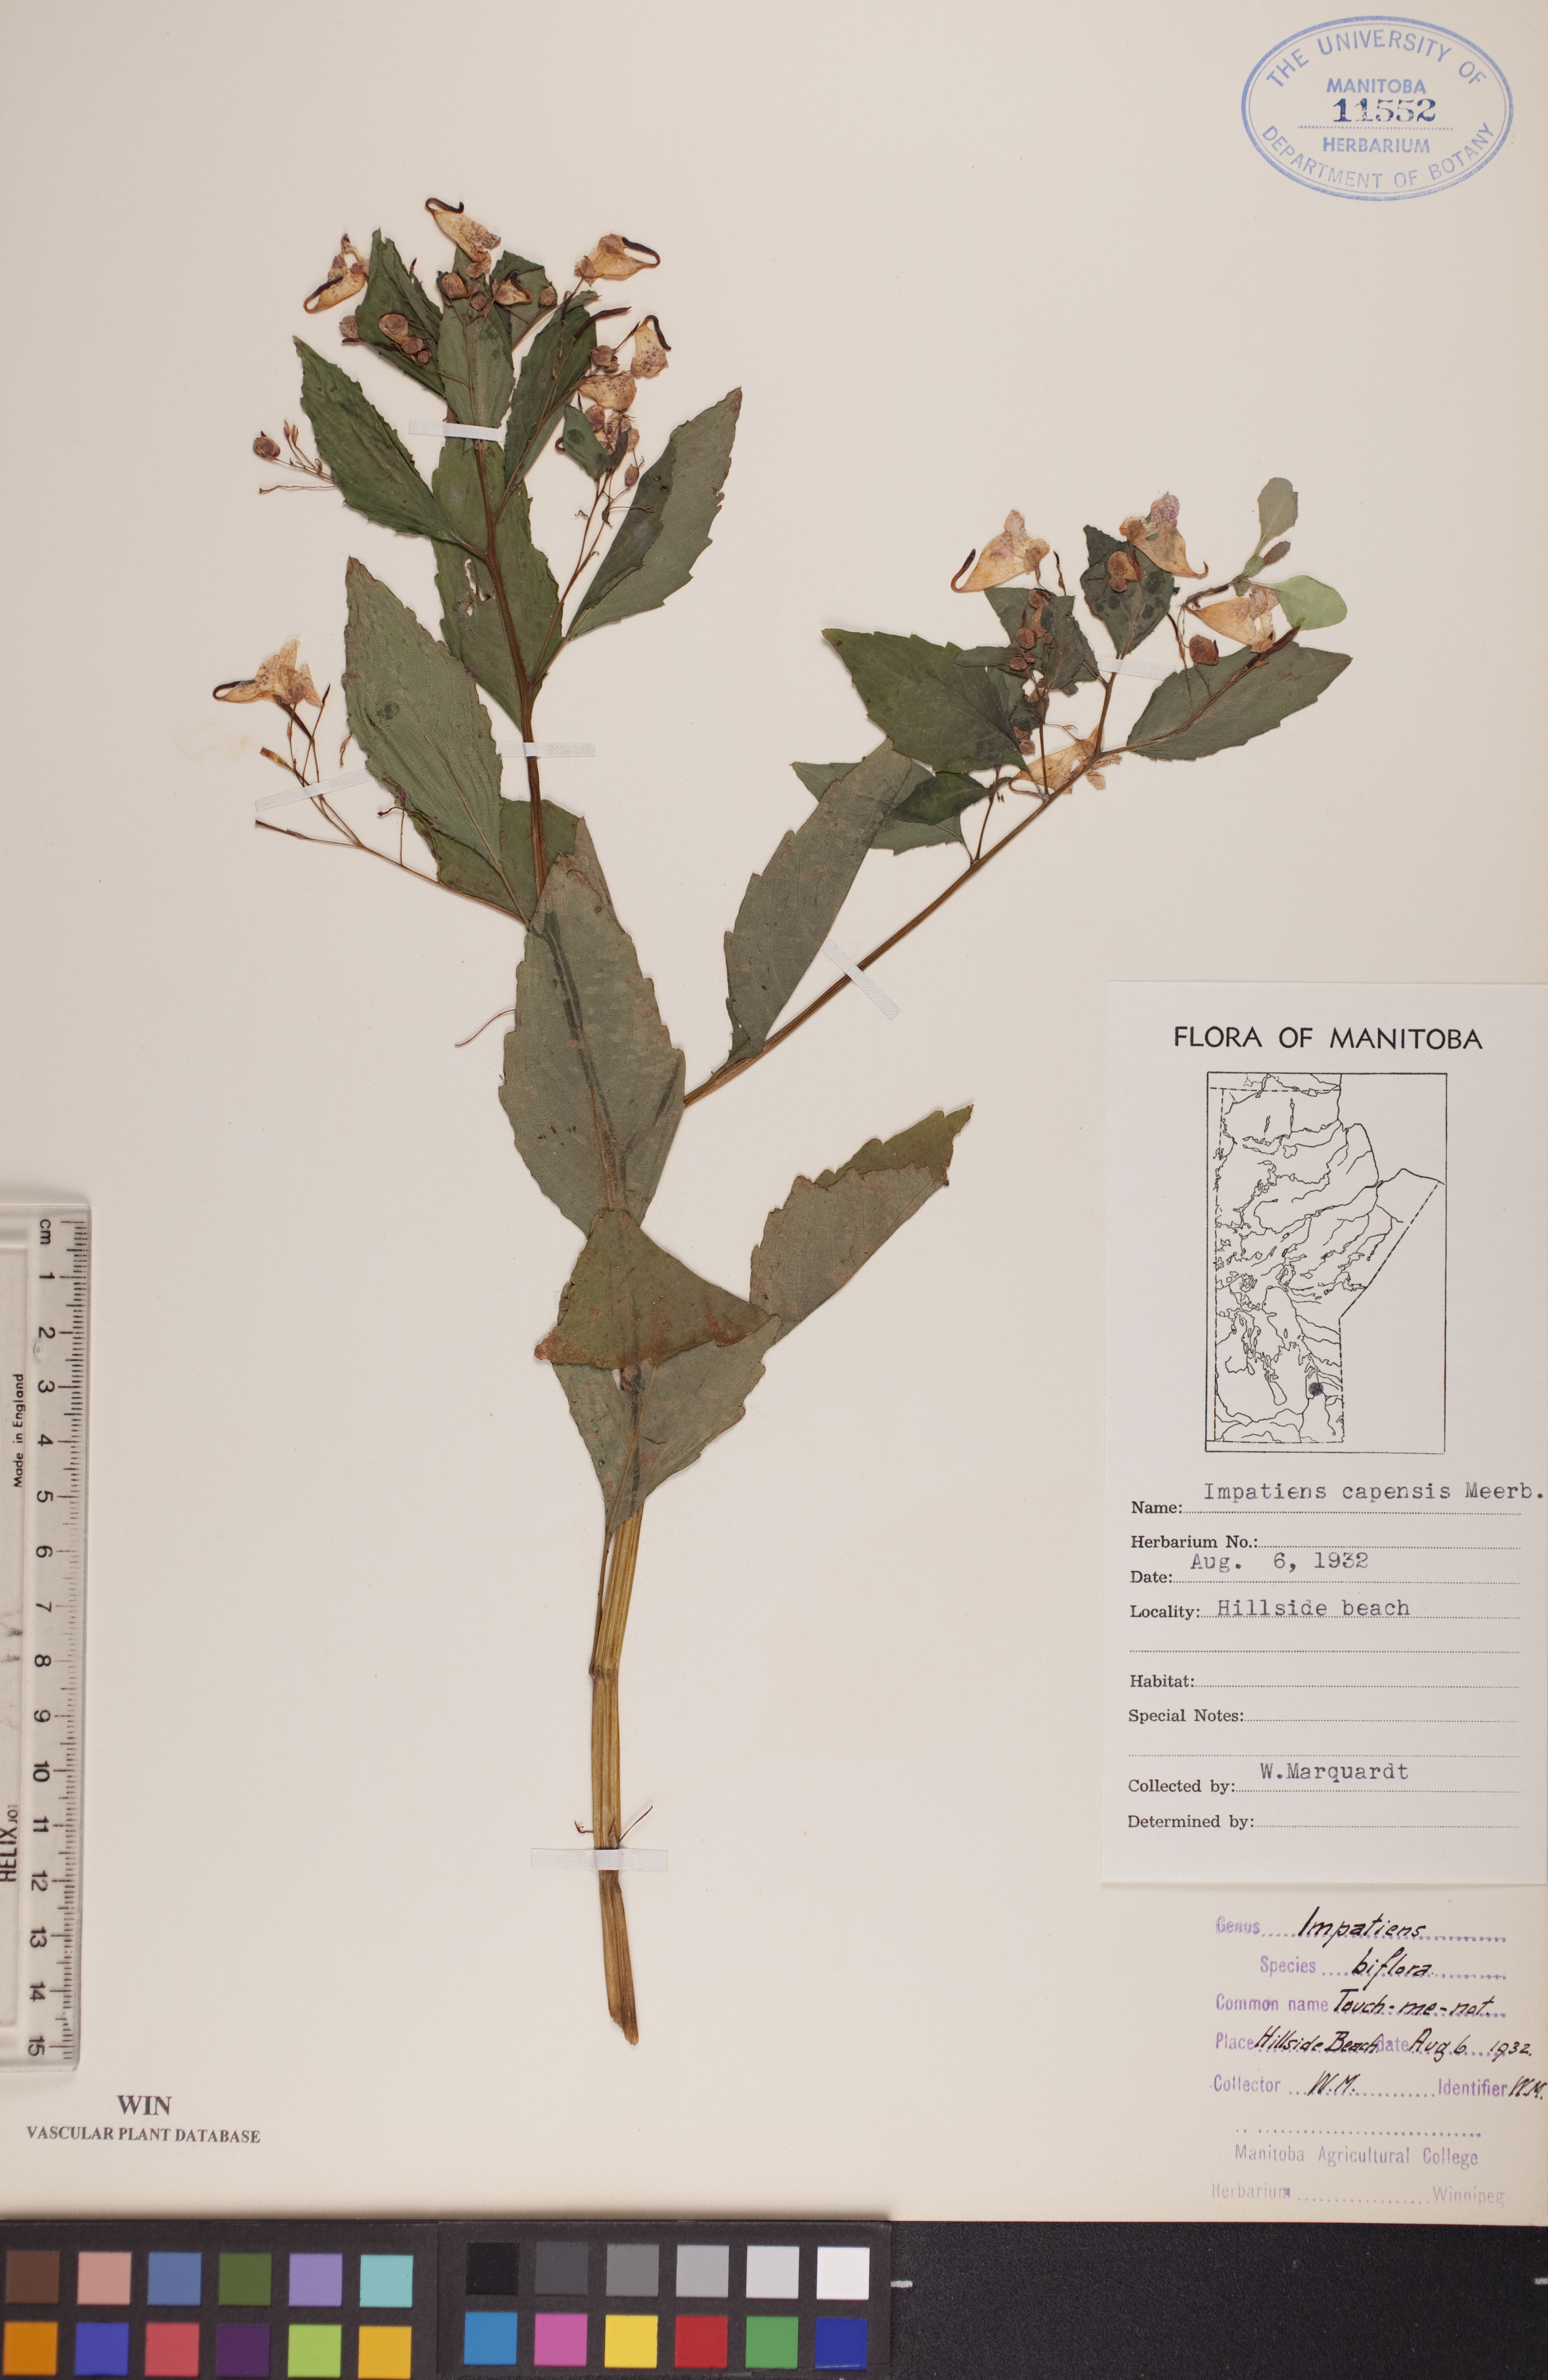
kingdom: Plantae
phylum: Tracheophyta
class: Magnoliopsida
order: Ericales
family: Balsaminaceae
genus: Impatiens
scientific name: Impatiens capensis
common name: Orange balsam
